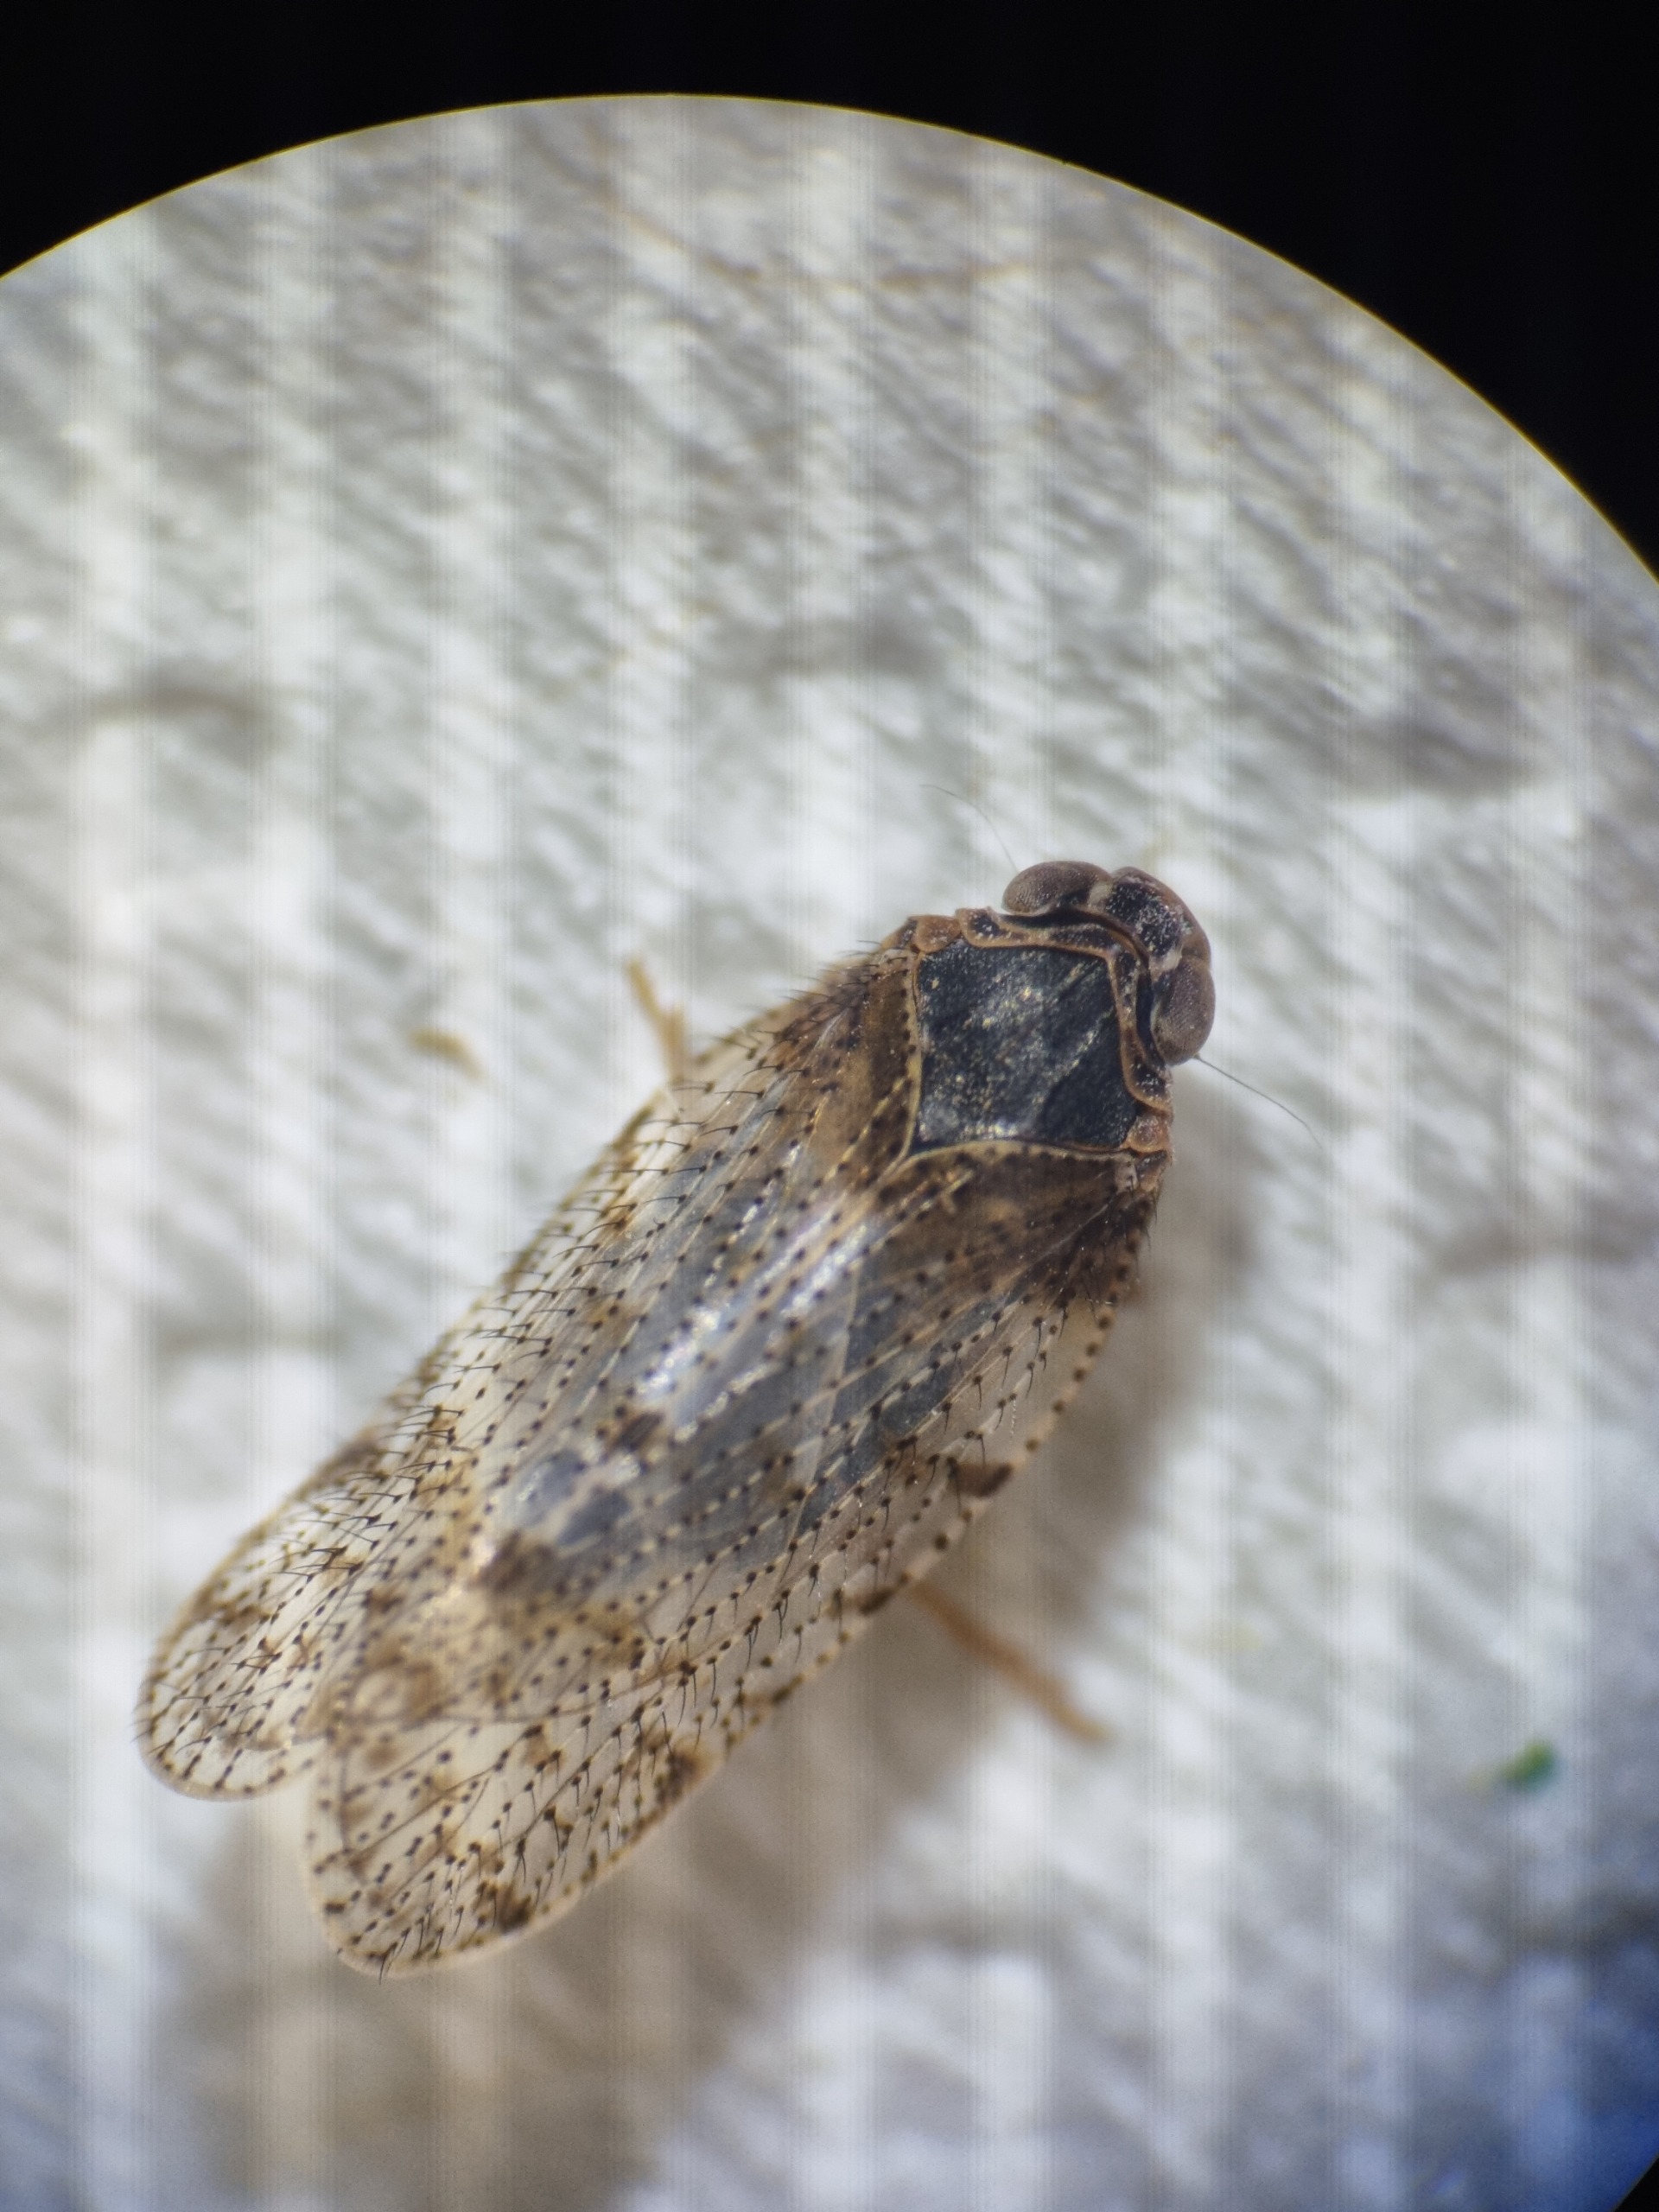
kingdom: Animalia
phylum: Arthropoda
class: Insecta
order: Hemiptera
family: Cixiidae
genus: Tachycixius
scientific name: Tachycixius pilosus
